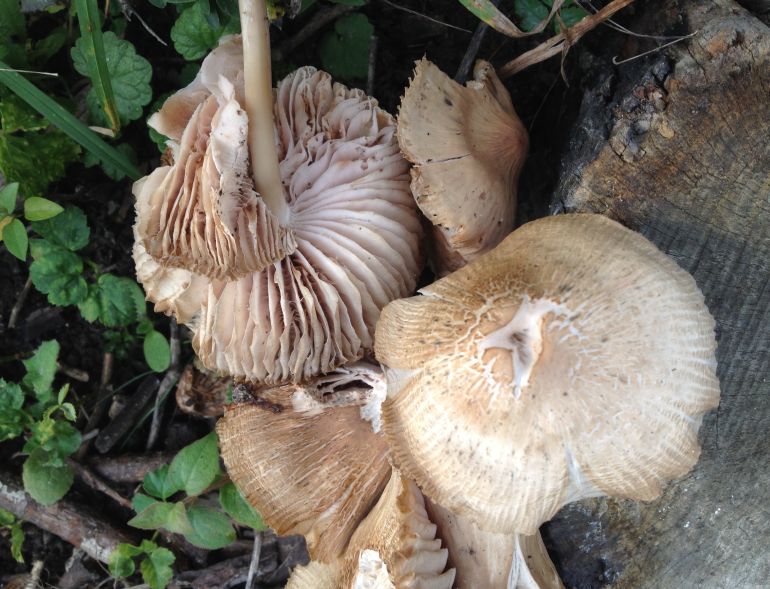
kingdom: Fungi
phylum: Basidiomycota
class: Agaricomycetes
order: Agaricales
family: Mycenaceae
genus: Mycena
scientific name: Mycena galericulata
